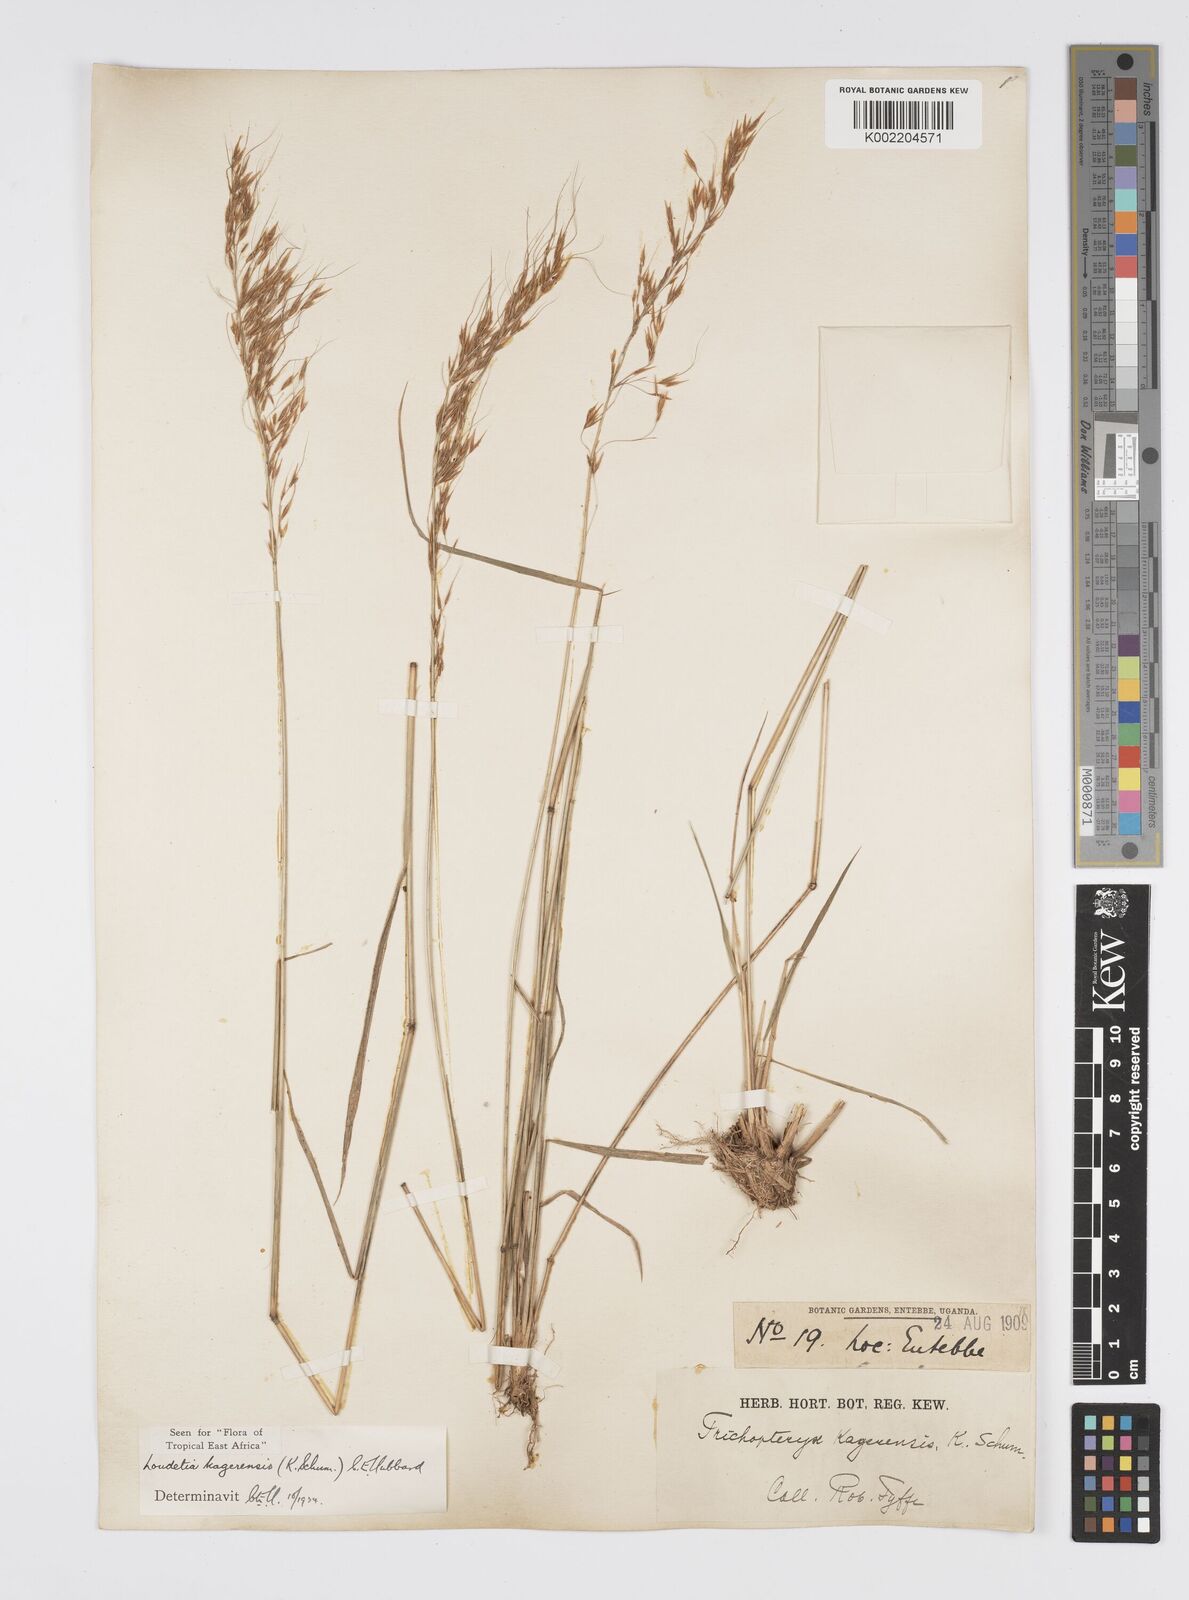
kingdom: Plantae
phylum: Tracheophyta
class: Liliopsida
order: Poales
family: Poaceae
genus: Loudetia
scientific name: Loudetia kagerensis
